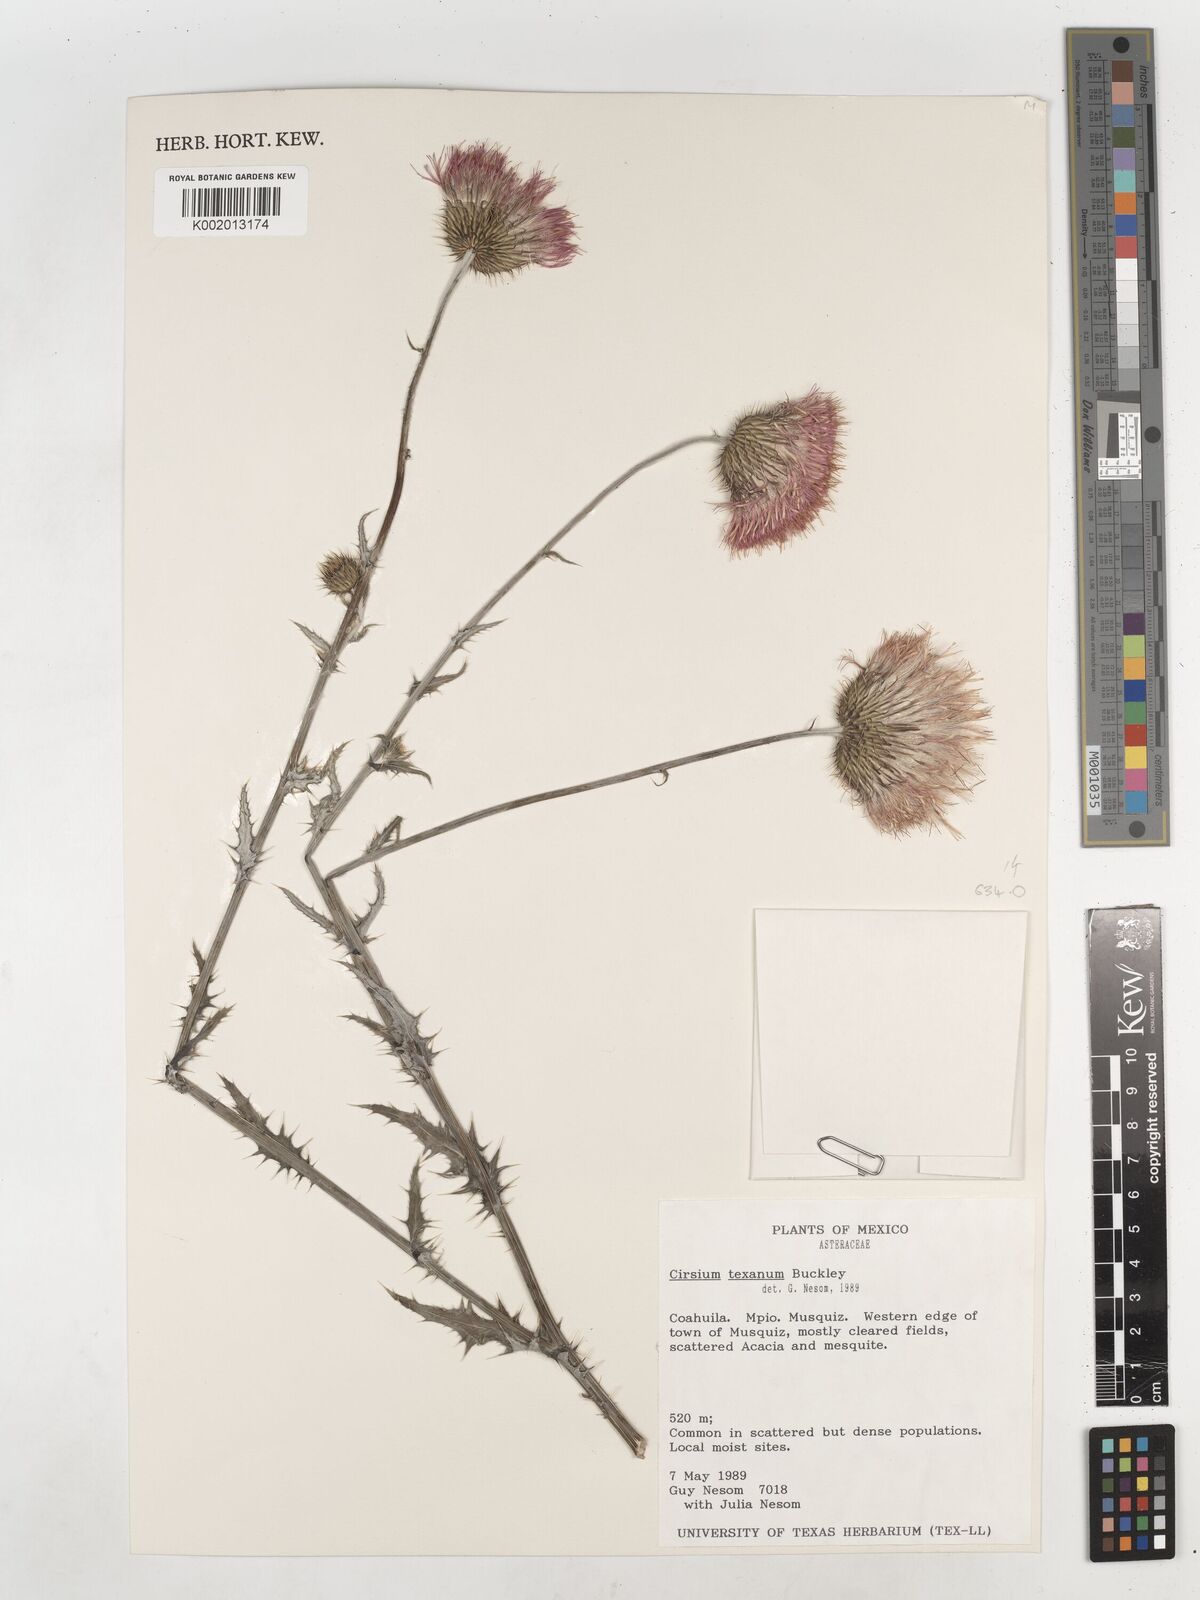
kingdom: Plantae
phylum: Tracheophyta
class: Magnoliopsida
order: Asterales
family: Asteraceae
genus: Cirsium
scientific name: Cirsium texanum
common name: Texas purple thistle
